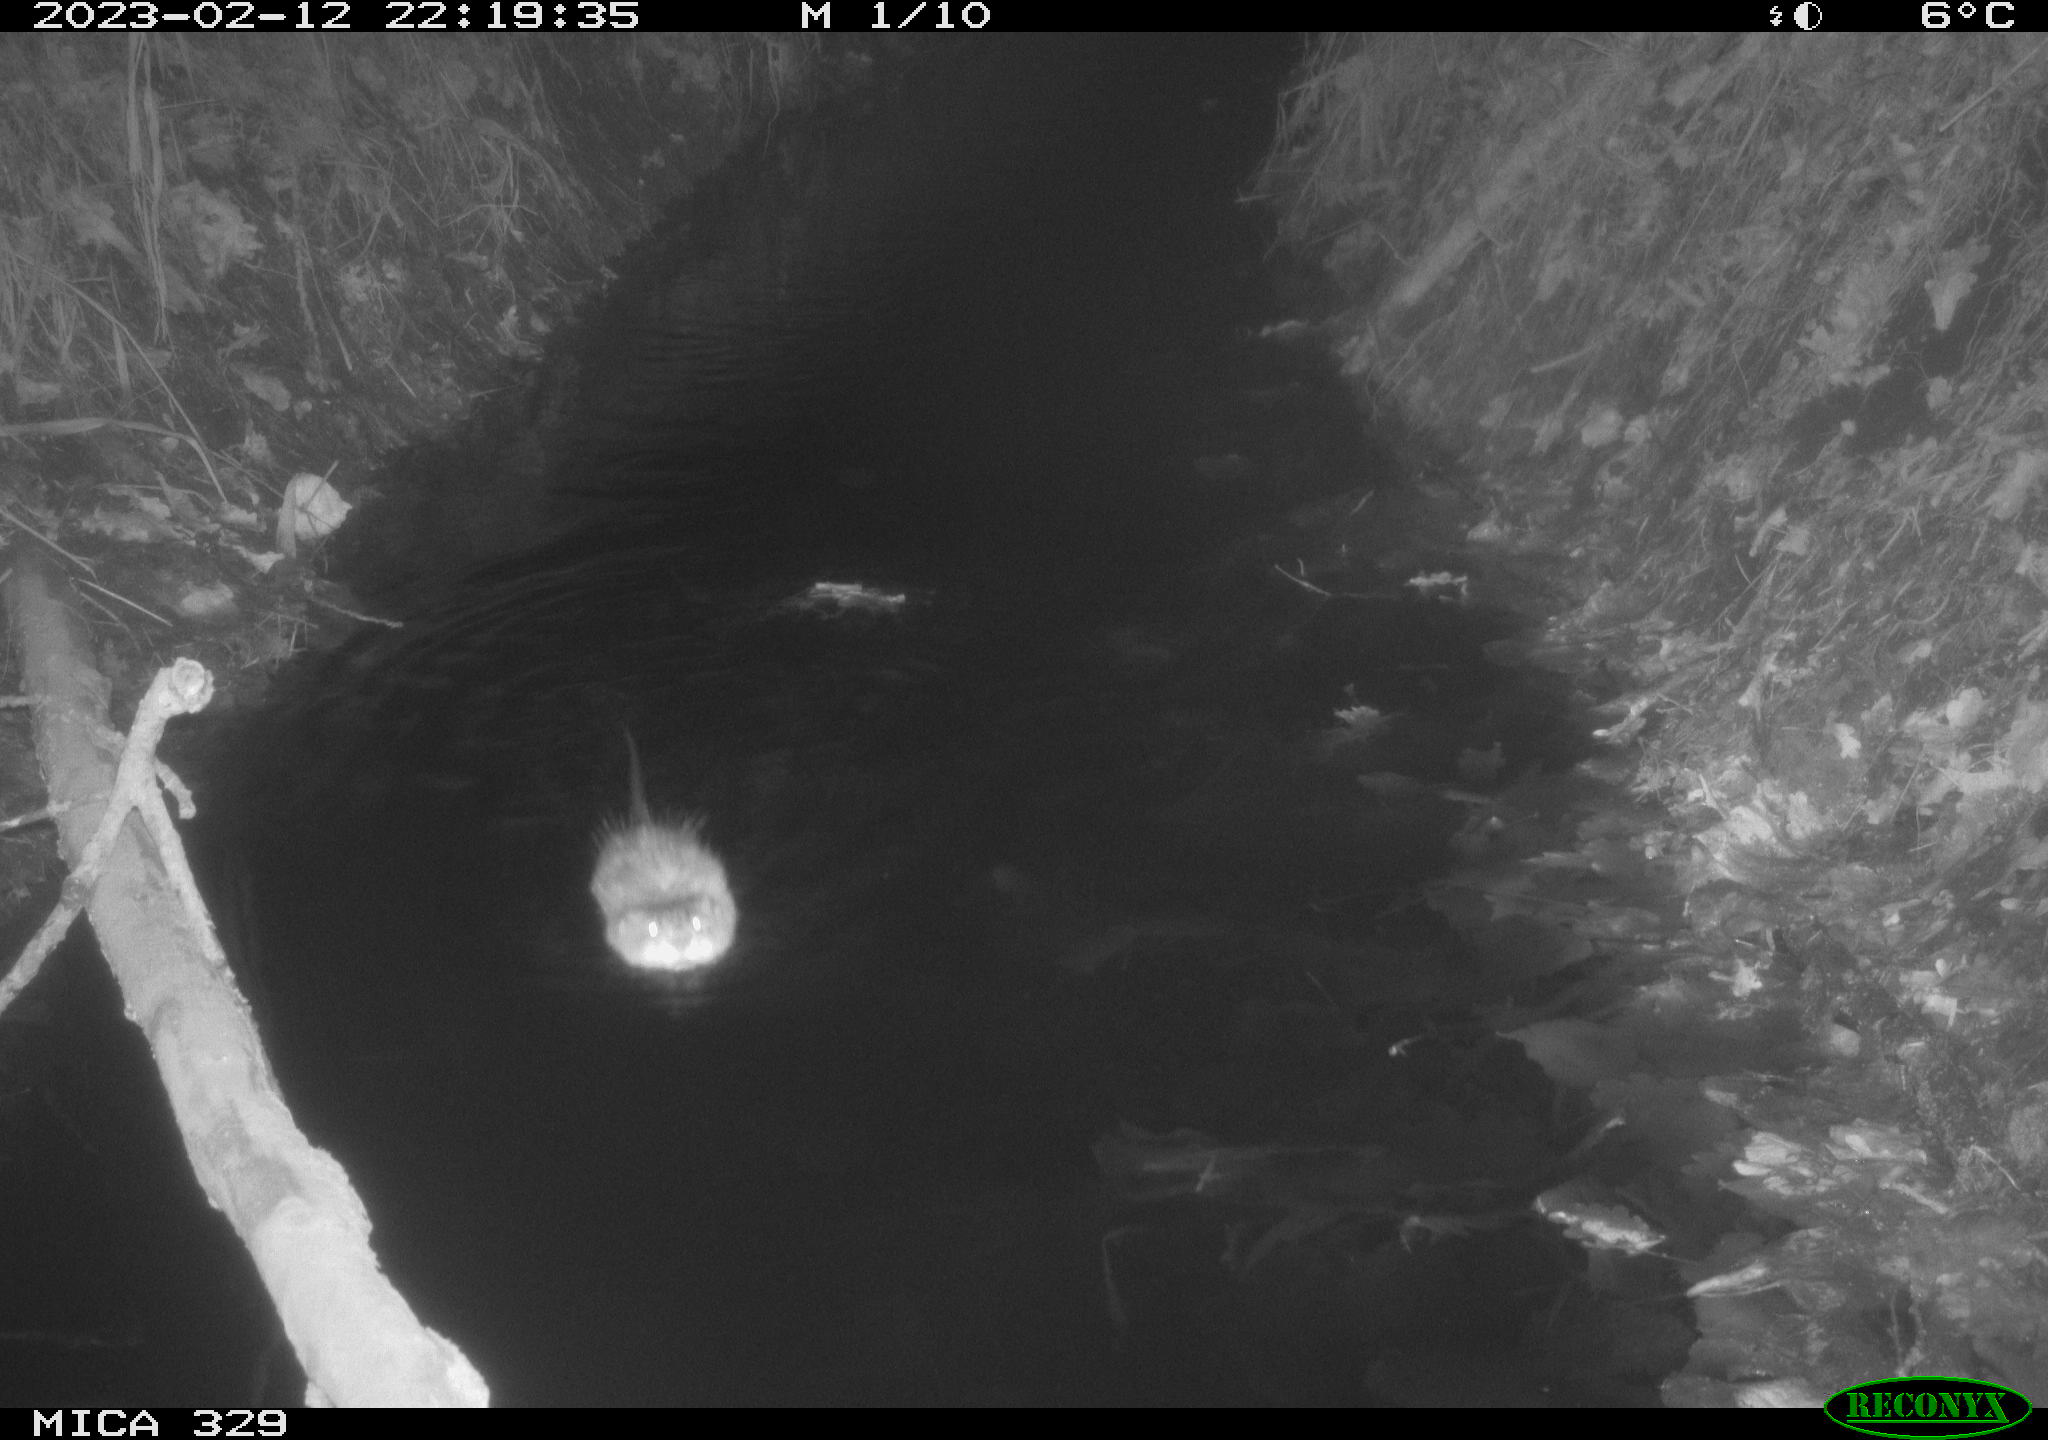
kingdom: Animalia
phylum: Chordata
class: Mammalia
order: Rodentia
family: Cricetidae
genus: Ondatra
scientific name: Ondatra zibethicus
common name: Muskrat
